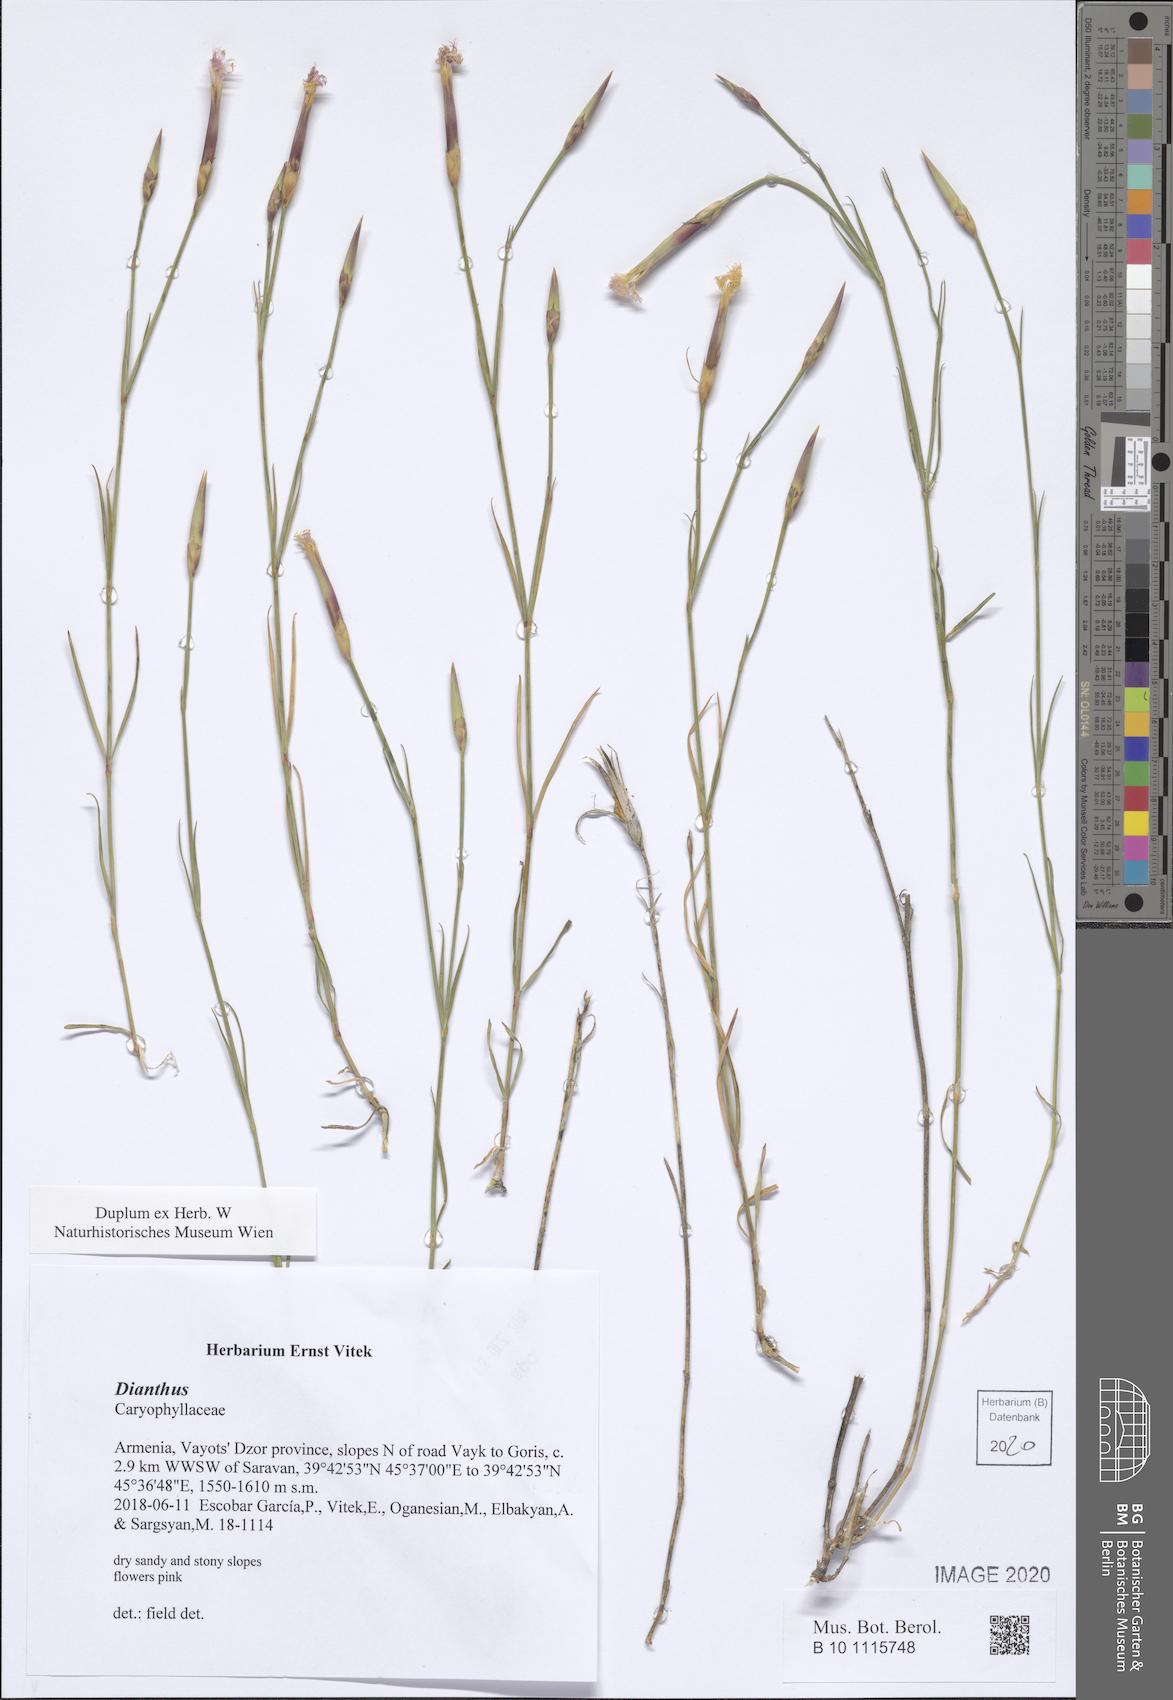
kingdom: Plantae
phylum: Tracheophyta
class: Magnoliopsida
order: Caryophyllales
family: Caryophyllaceae
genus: Dianthus
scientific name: Dianthus
